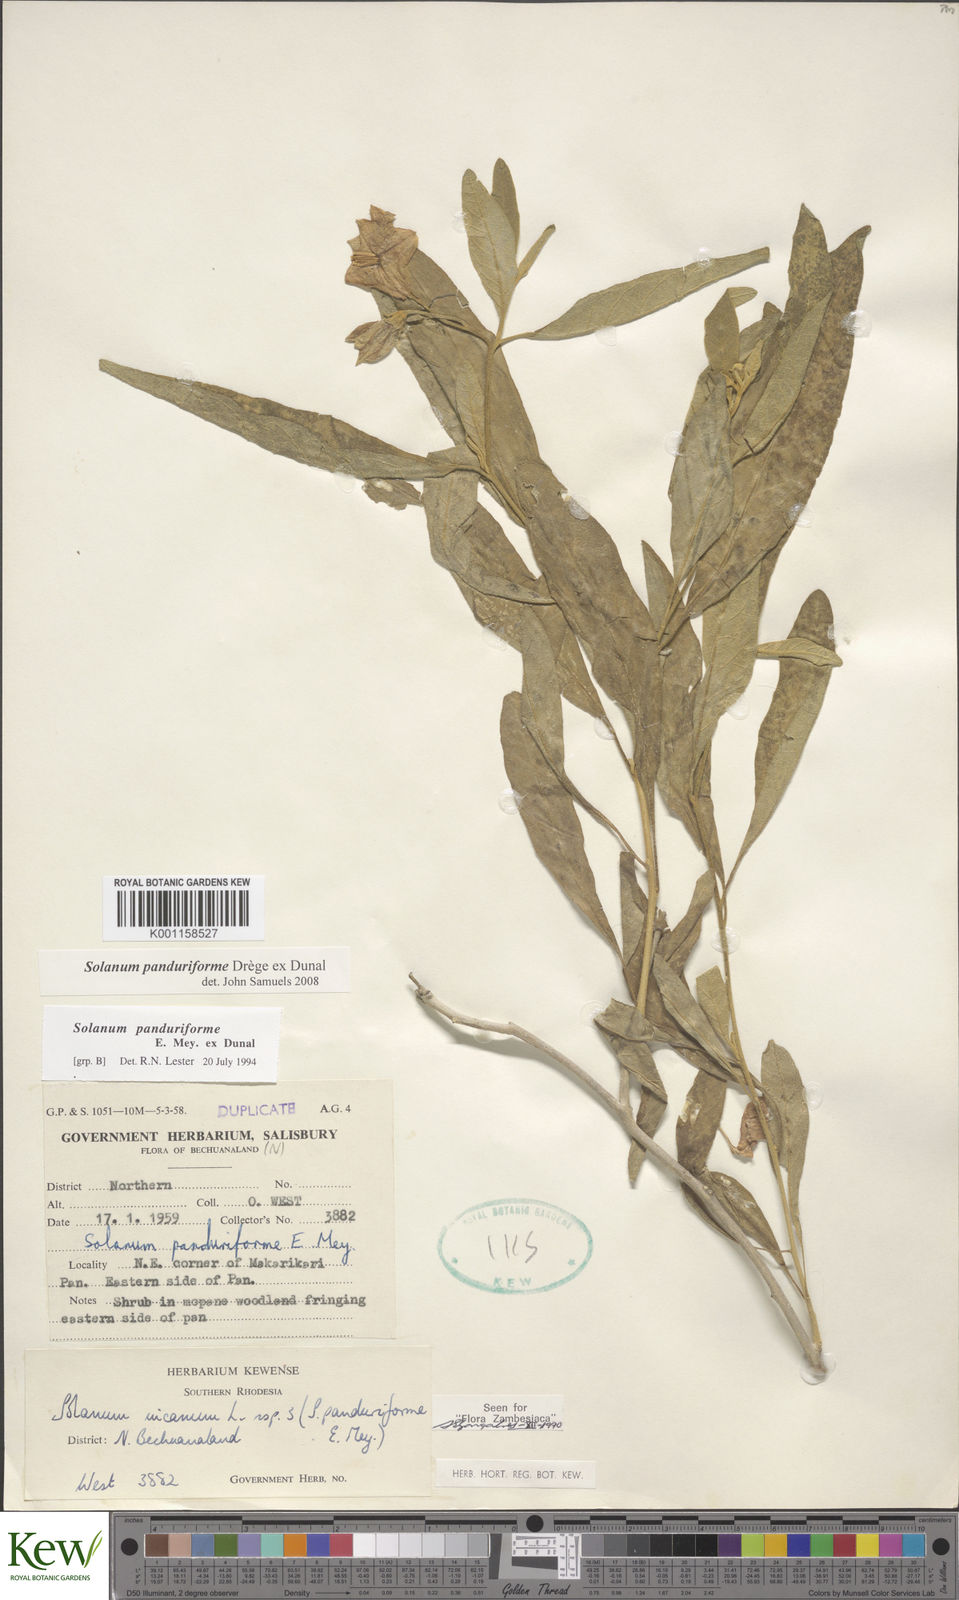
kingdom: Plantae
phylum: Tracheophyta
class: Magnoliopsida
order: Solanales
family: Solanaceae
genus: Solanum
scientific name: Solanum campylacanthum
